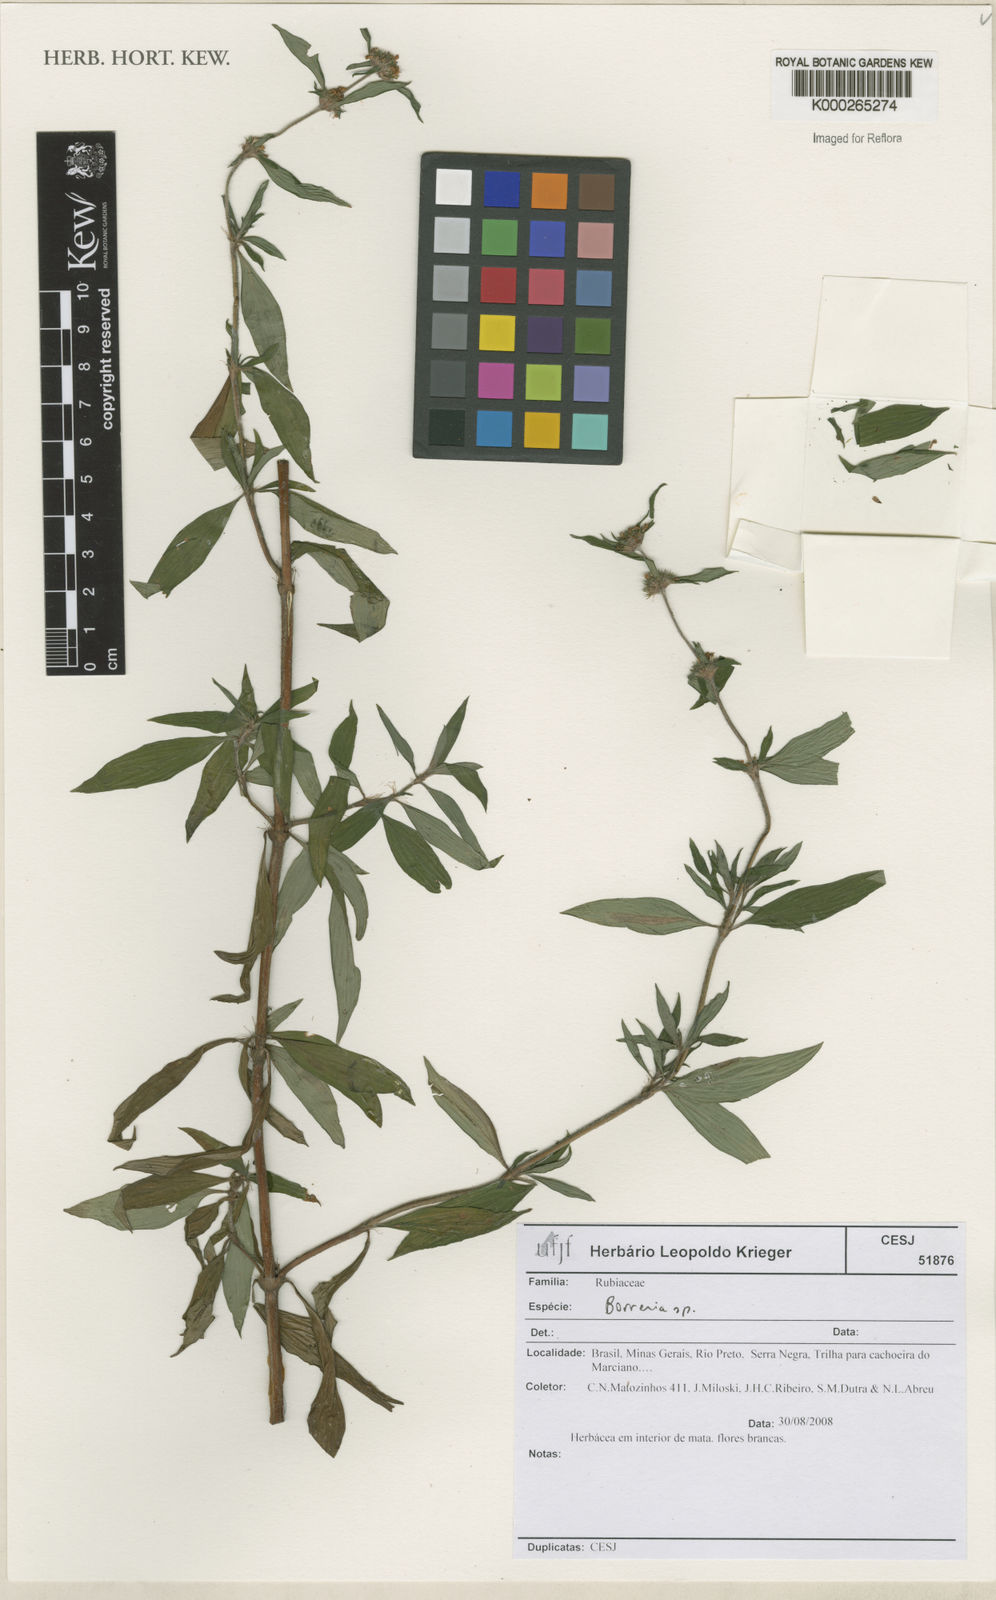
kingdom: Plantae
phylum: Tracheophyta
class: Magnoliopsida
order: Gentianales
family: Rubiaceae
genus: Spermacoce
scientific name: Spermacoce
